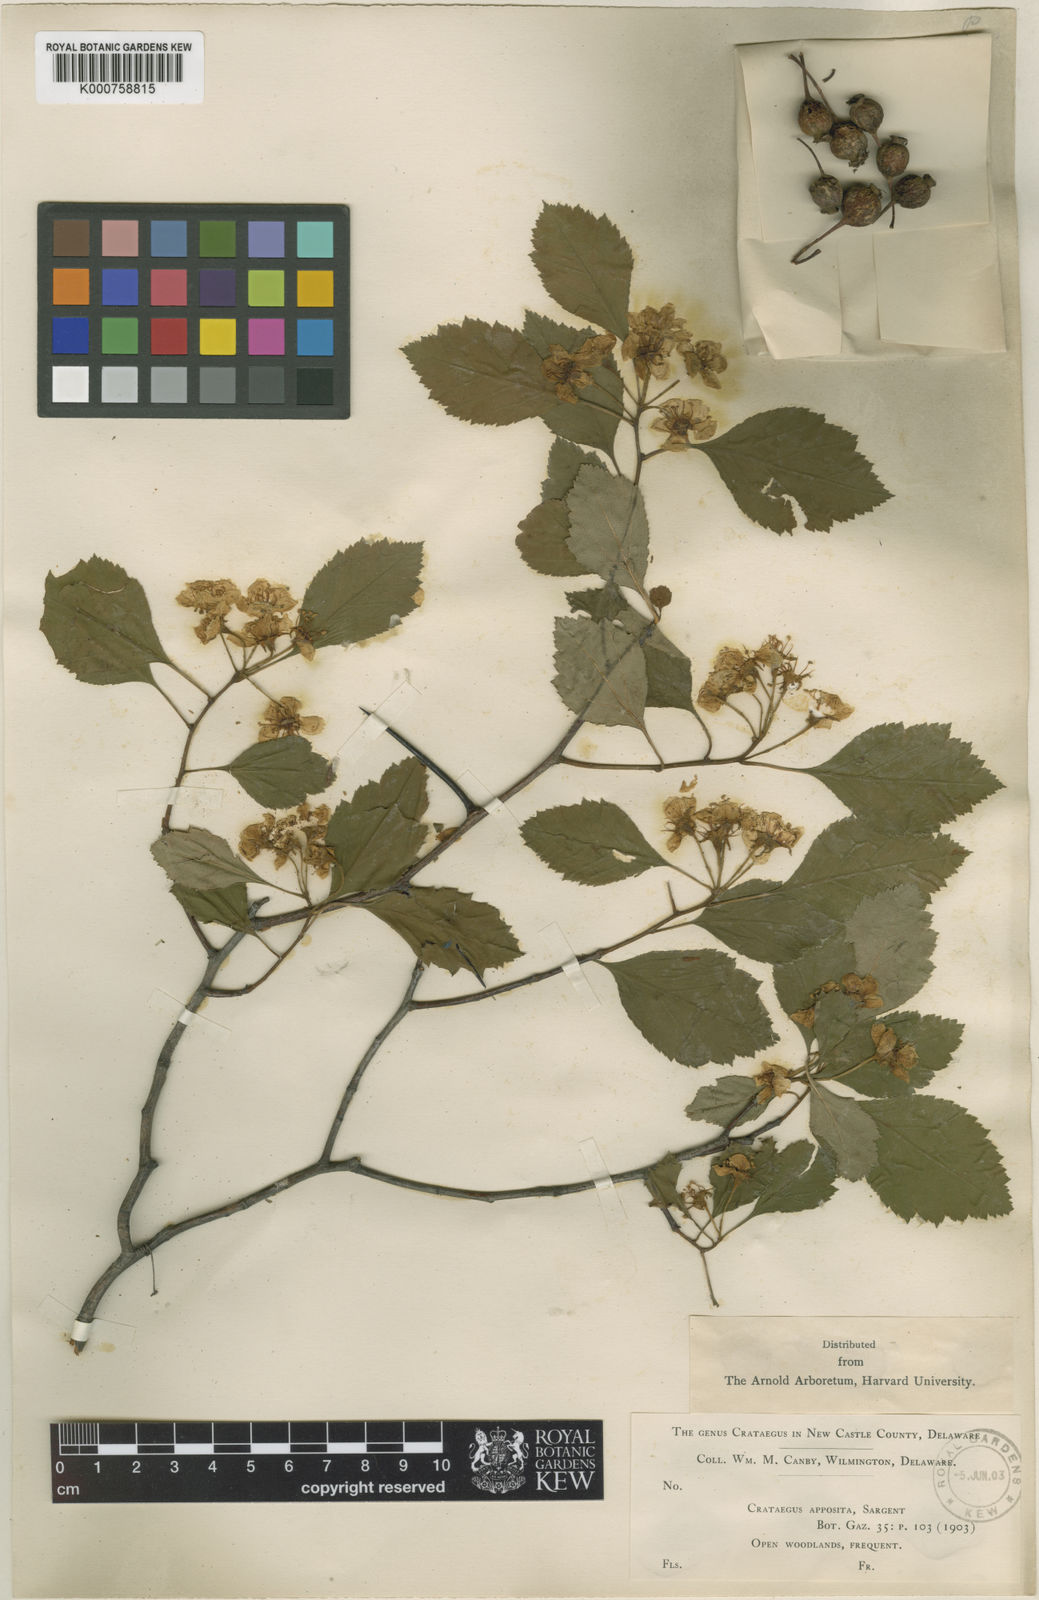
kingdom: Plantae
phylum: Tracheophyta
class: Magnoliopsida
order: Rosales
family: Rosaceae
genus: Crataegus
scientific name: Crataegus intricata
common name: Biltmore hawthorn
